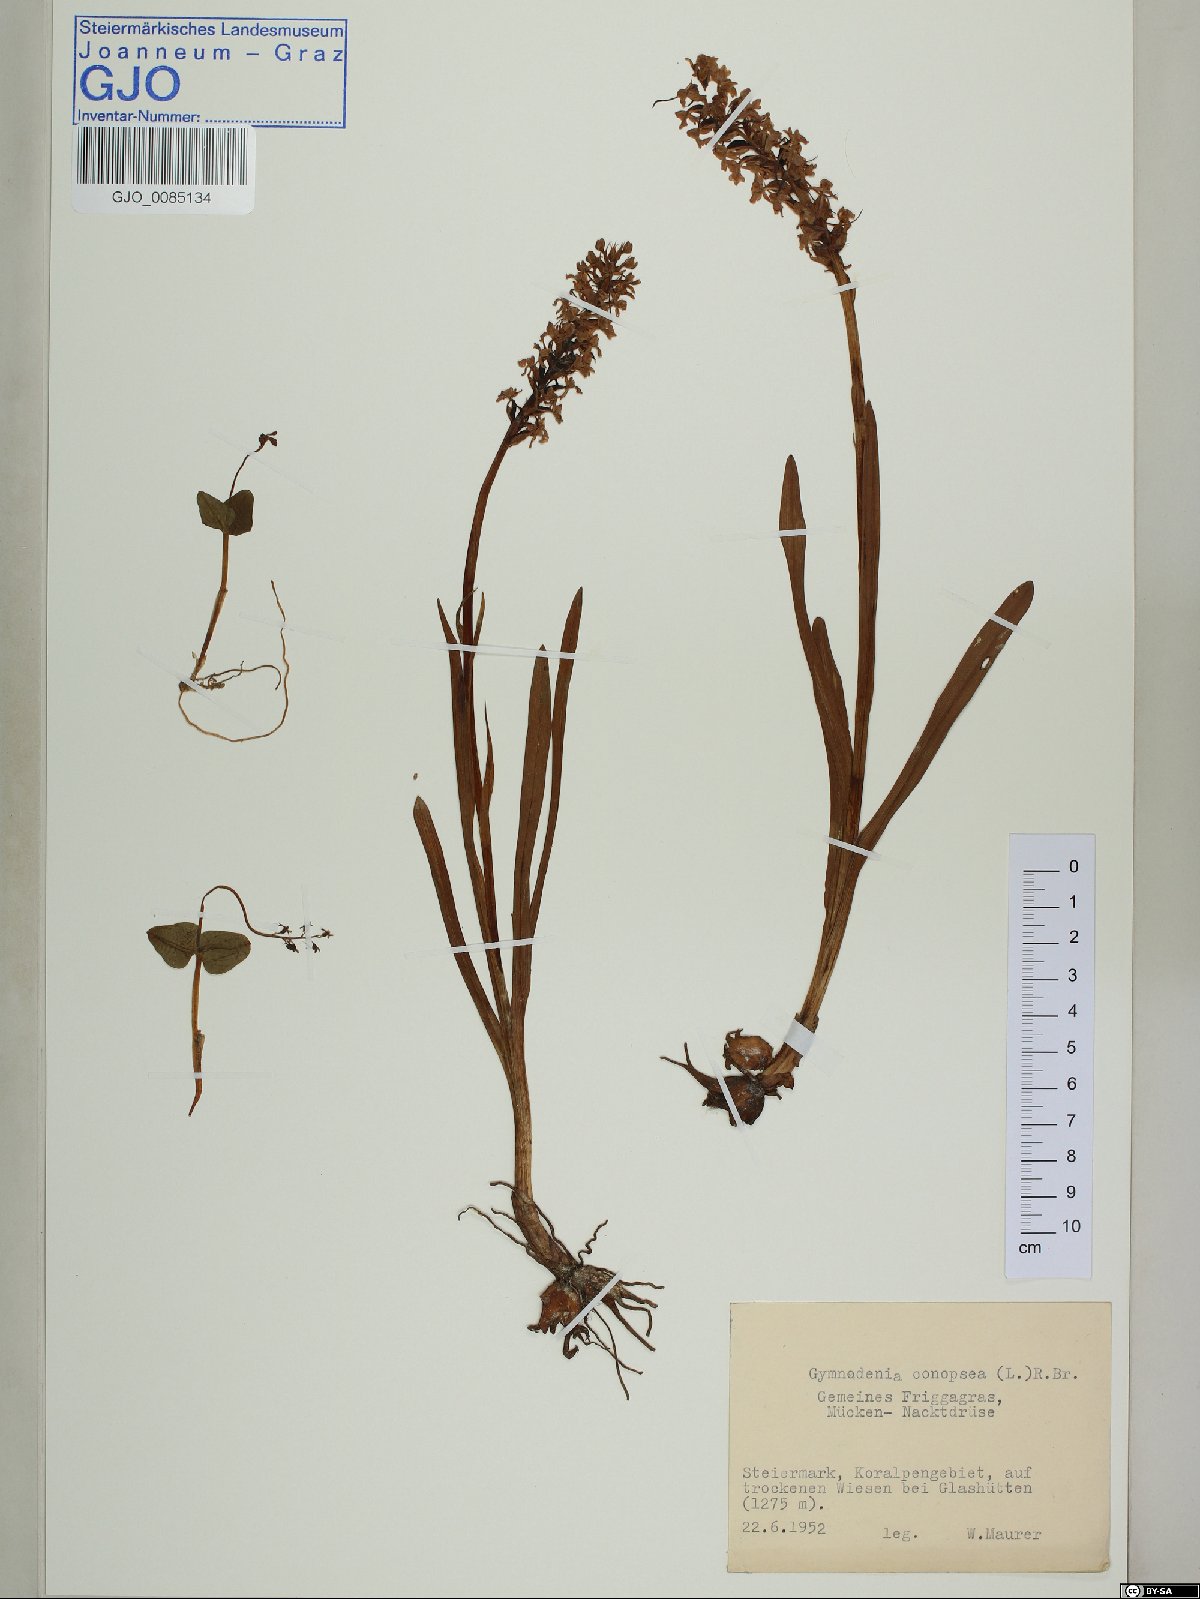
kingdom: Plantae
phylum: Tracheophyta
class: Liliopsida
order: Asparagales
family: Orchidaceae
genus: Gymnadenia
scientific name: Gymnadenia conopsea
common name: Fragrant orchid
